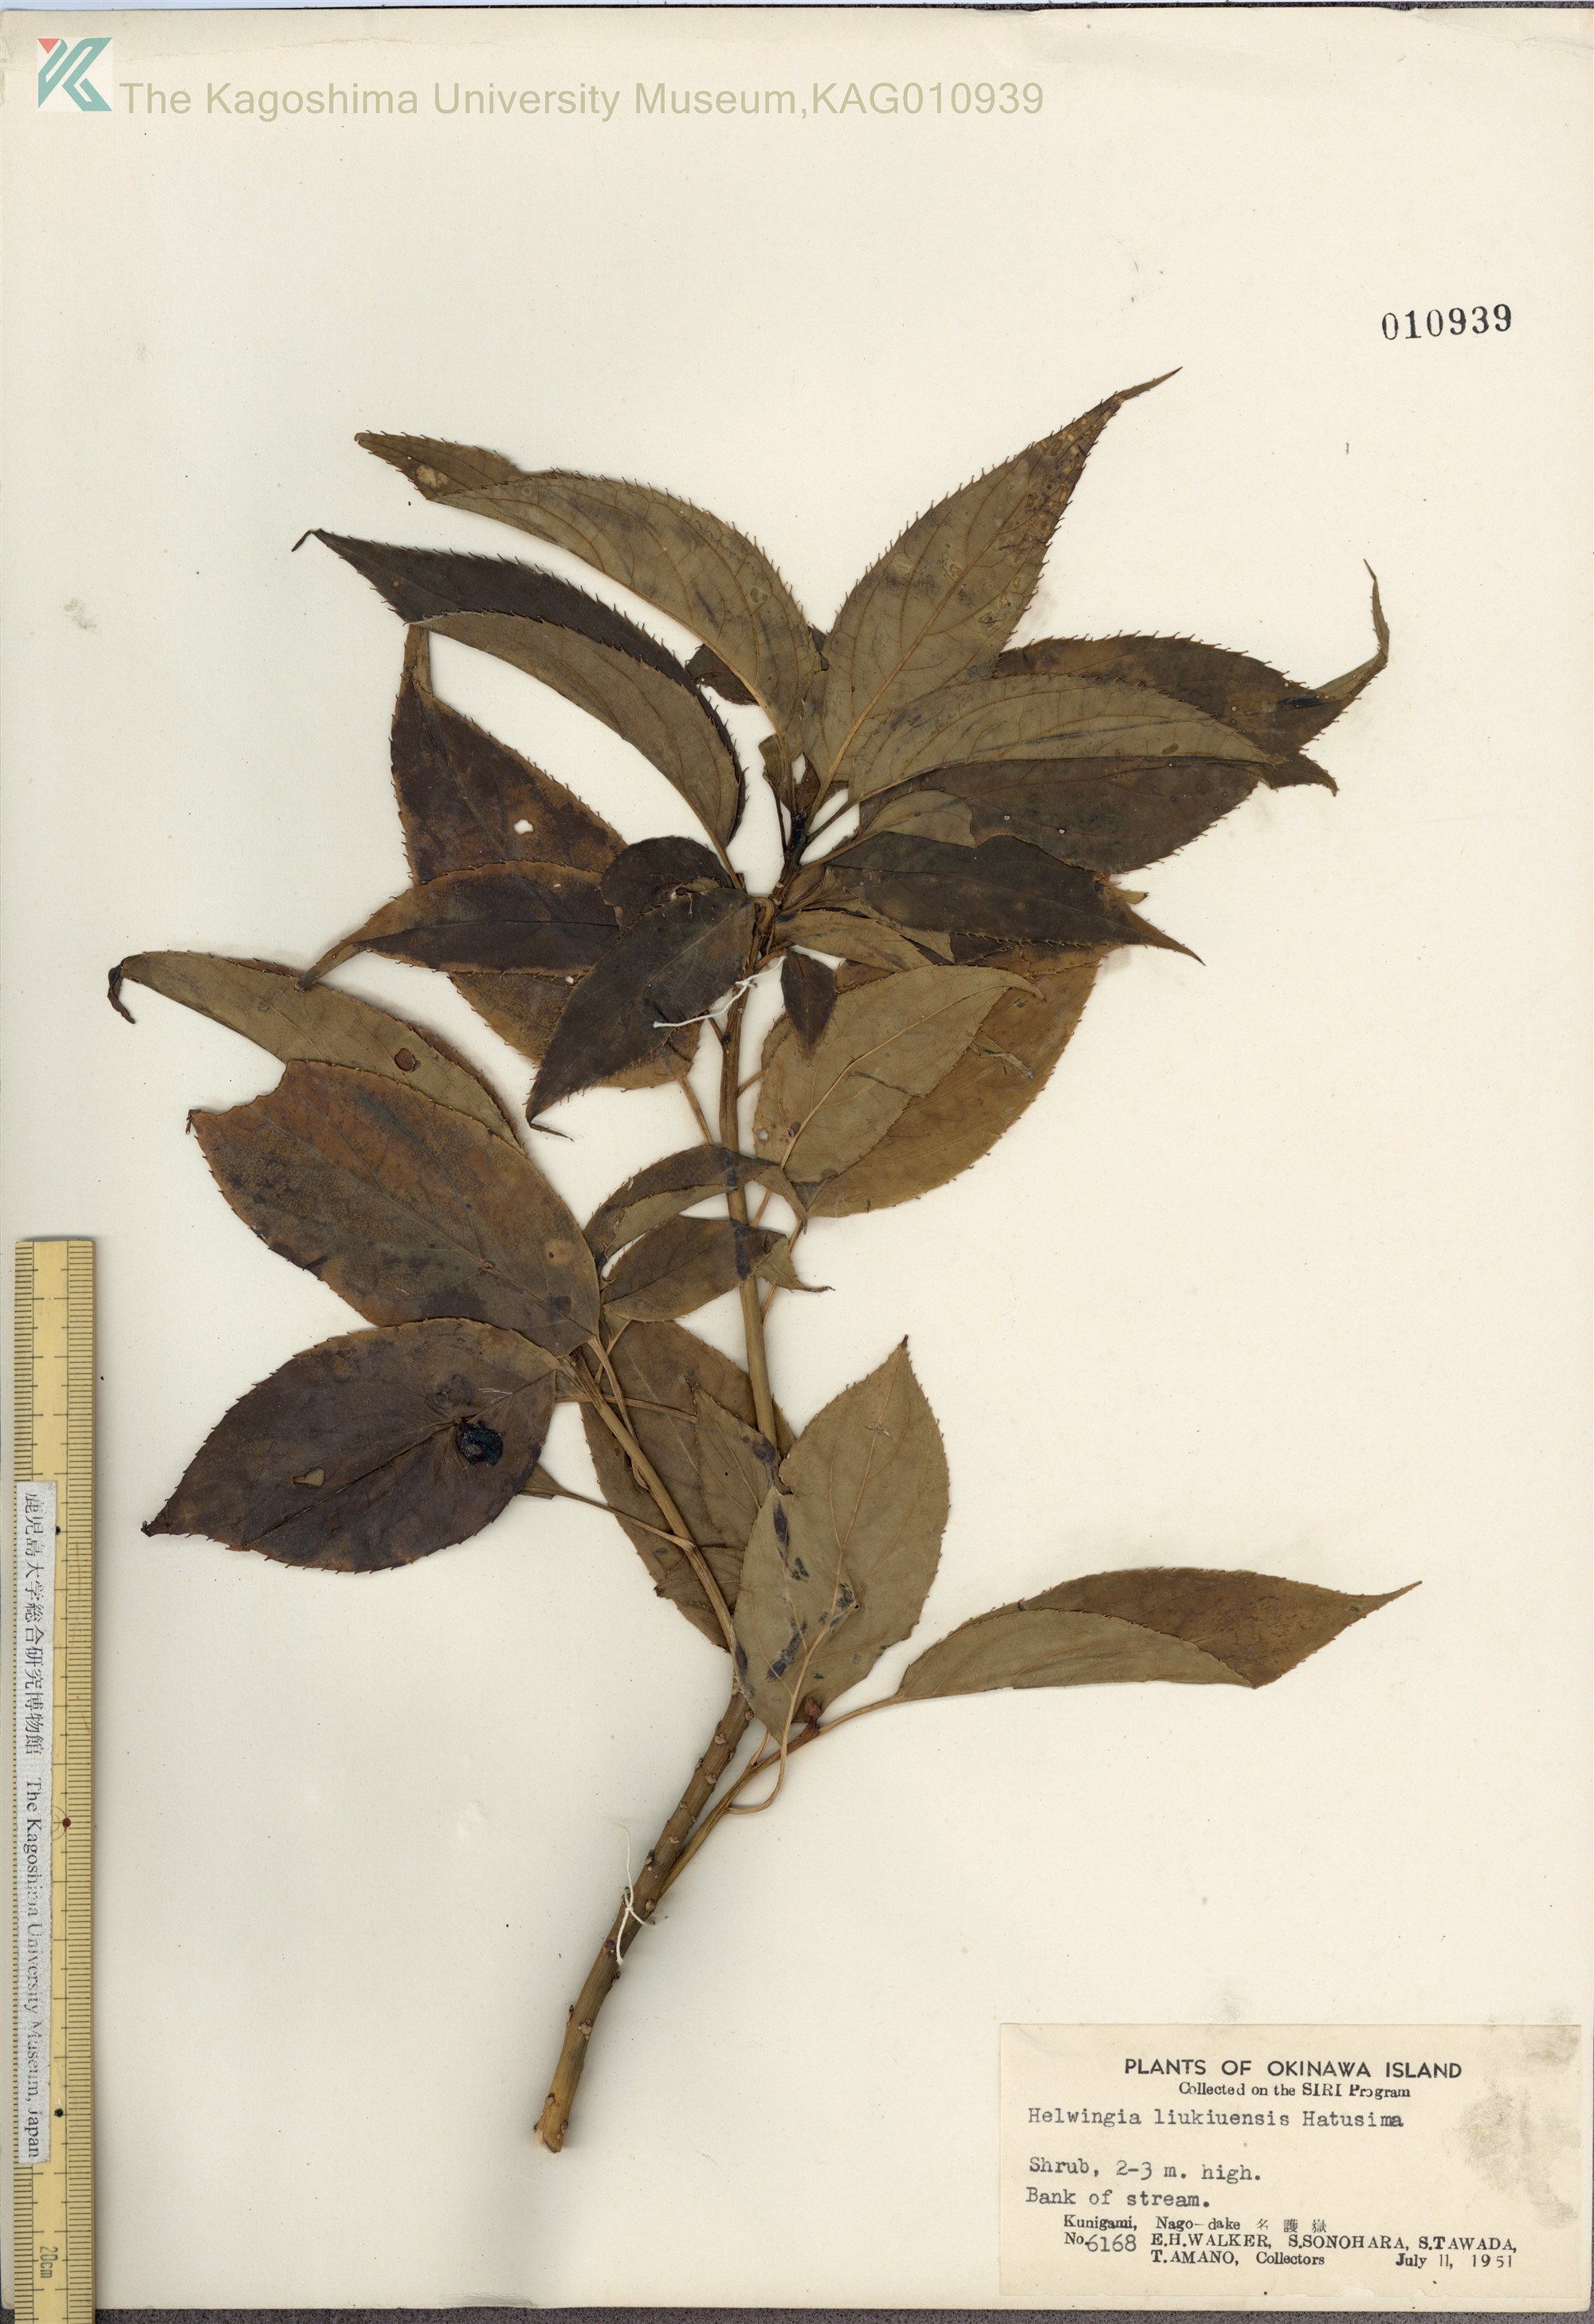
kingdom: Plantae
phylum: Tracheophyta
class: Magnoliopsida
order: Aquifoliales
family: Helwingiaceae
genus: Helwingia
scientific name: Helwingia japonica
